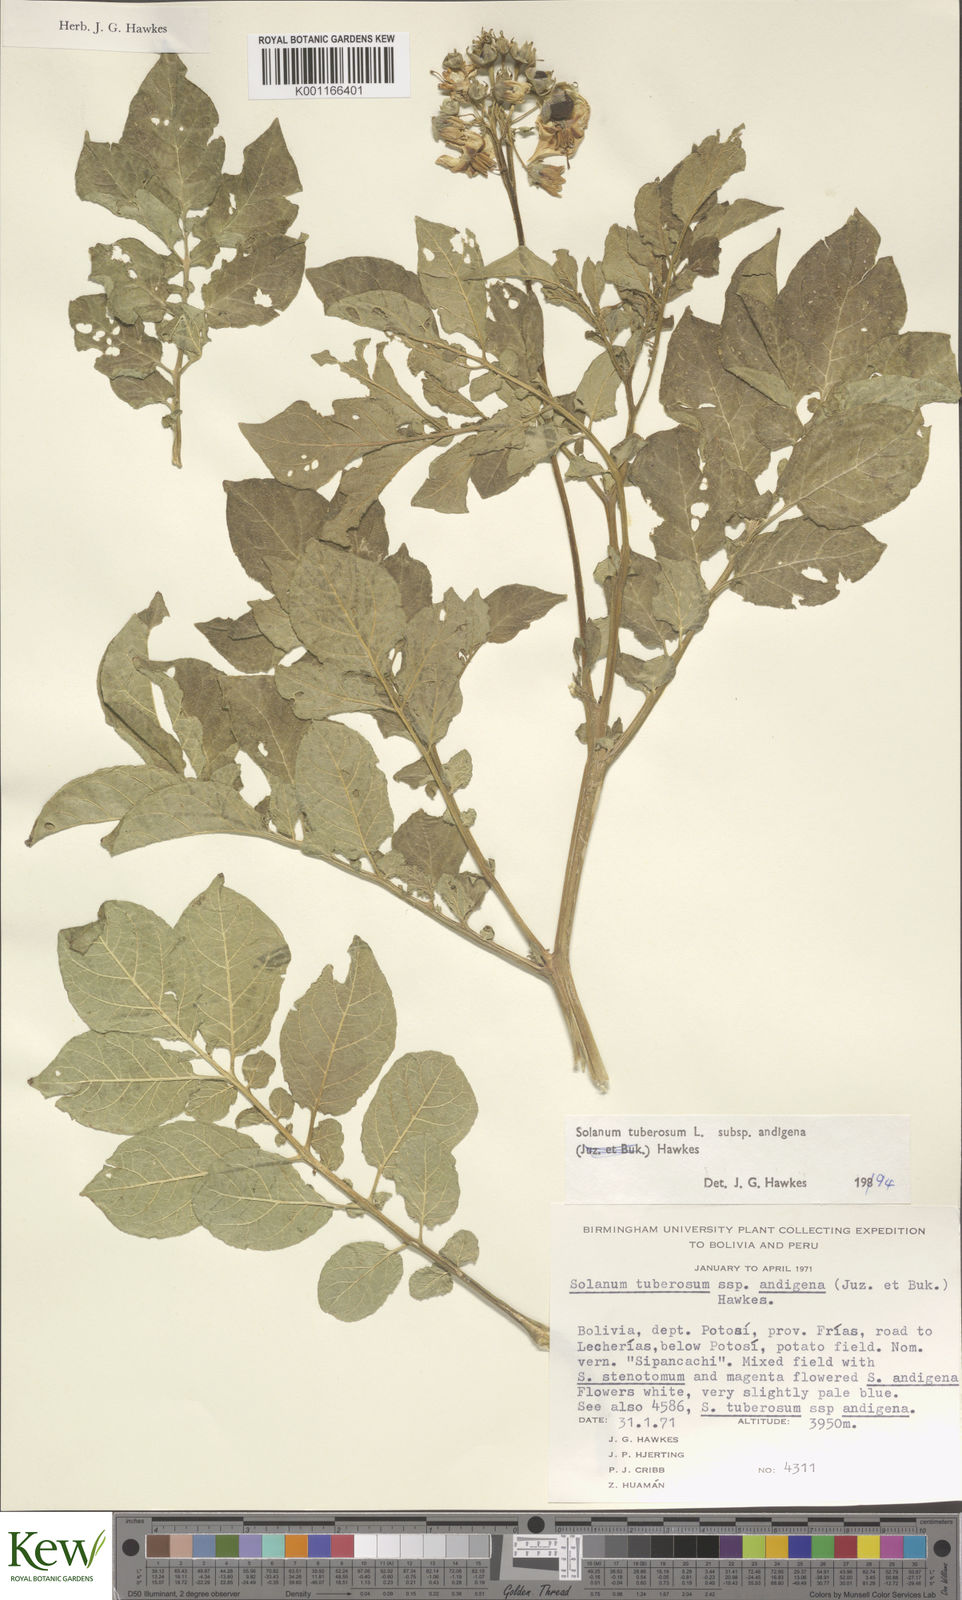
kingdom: Plantae
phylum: Tracheophyta
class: Magnoliopsida
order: Solanales
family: Solanaceae
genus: Solanum
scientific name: Solanum tuberosum
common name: Potato
